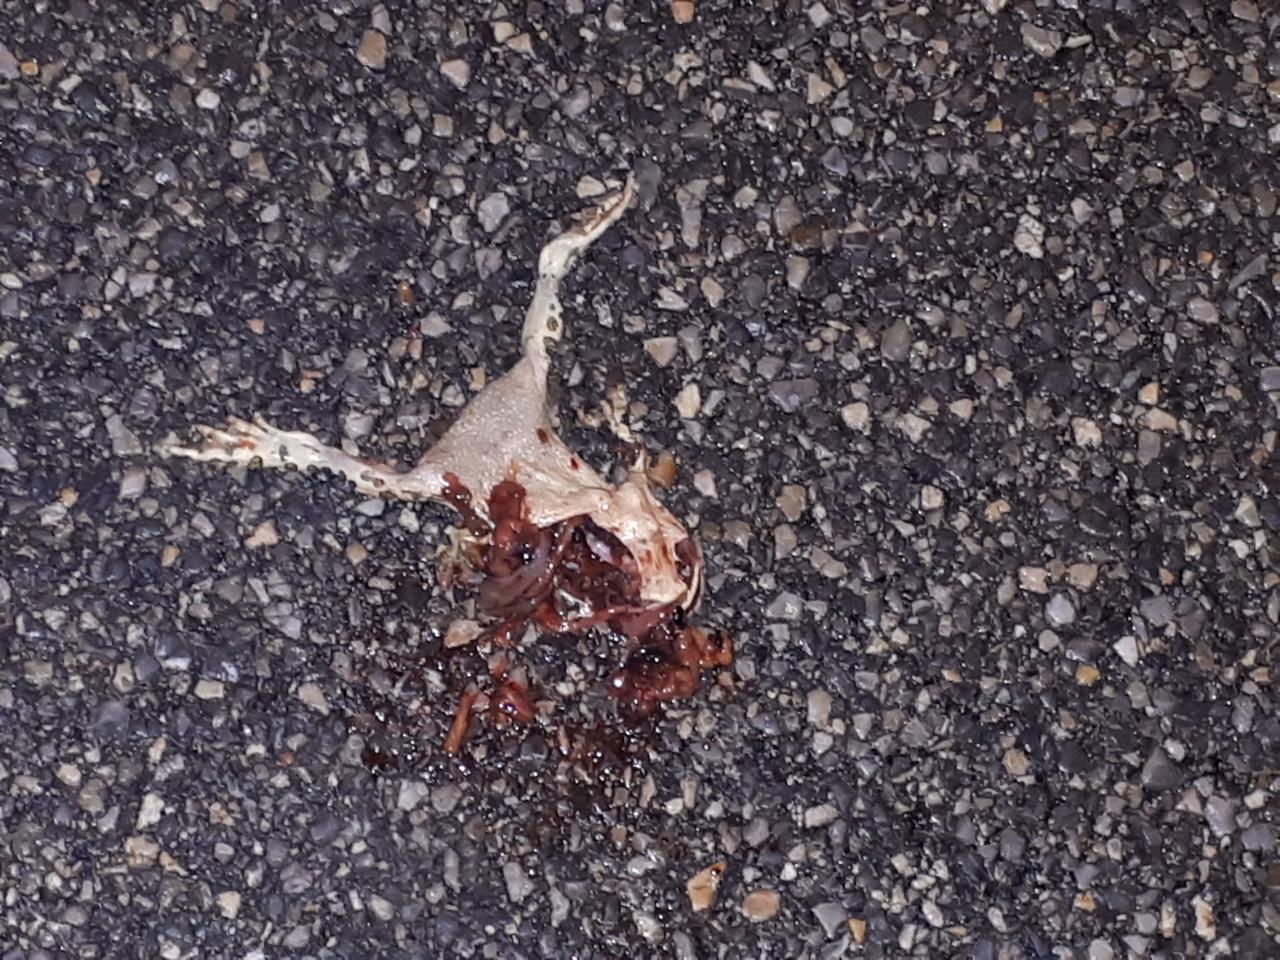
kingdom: Animalia
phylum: Chordata
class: Amphibia
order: Anura
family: Bufonidae
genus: Bufotes
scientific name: Bufotes viridis
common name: European green toad
